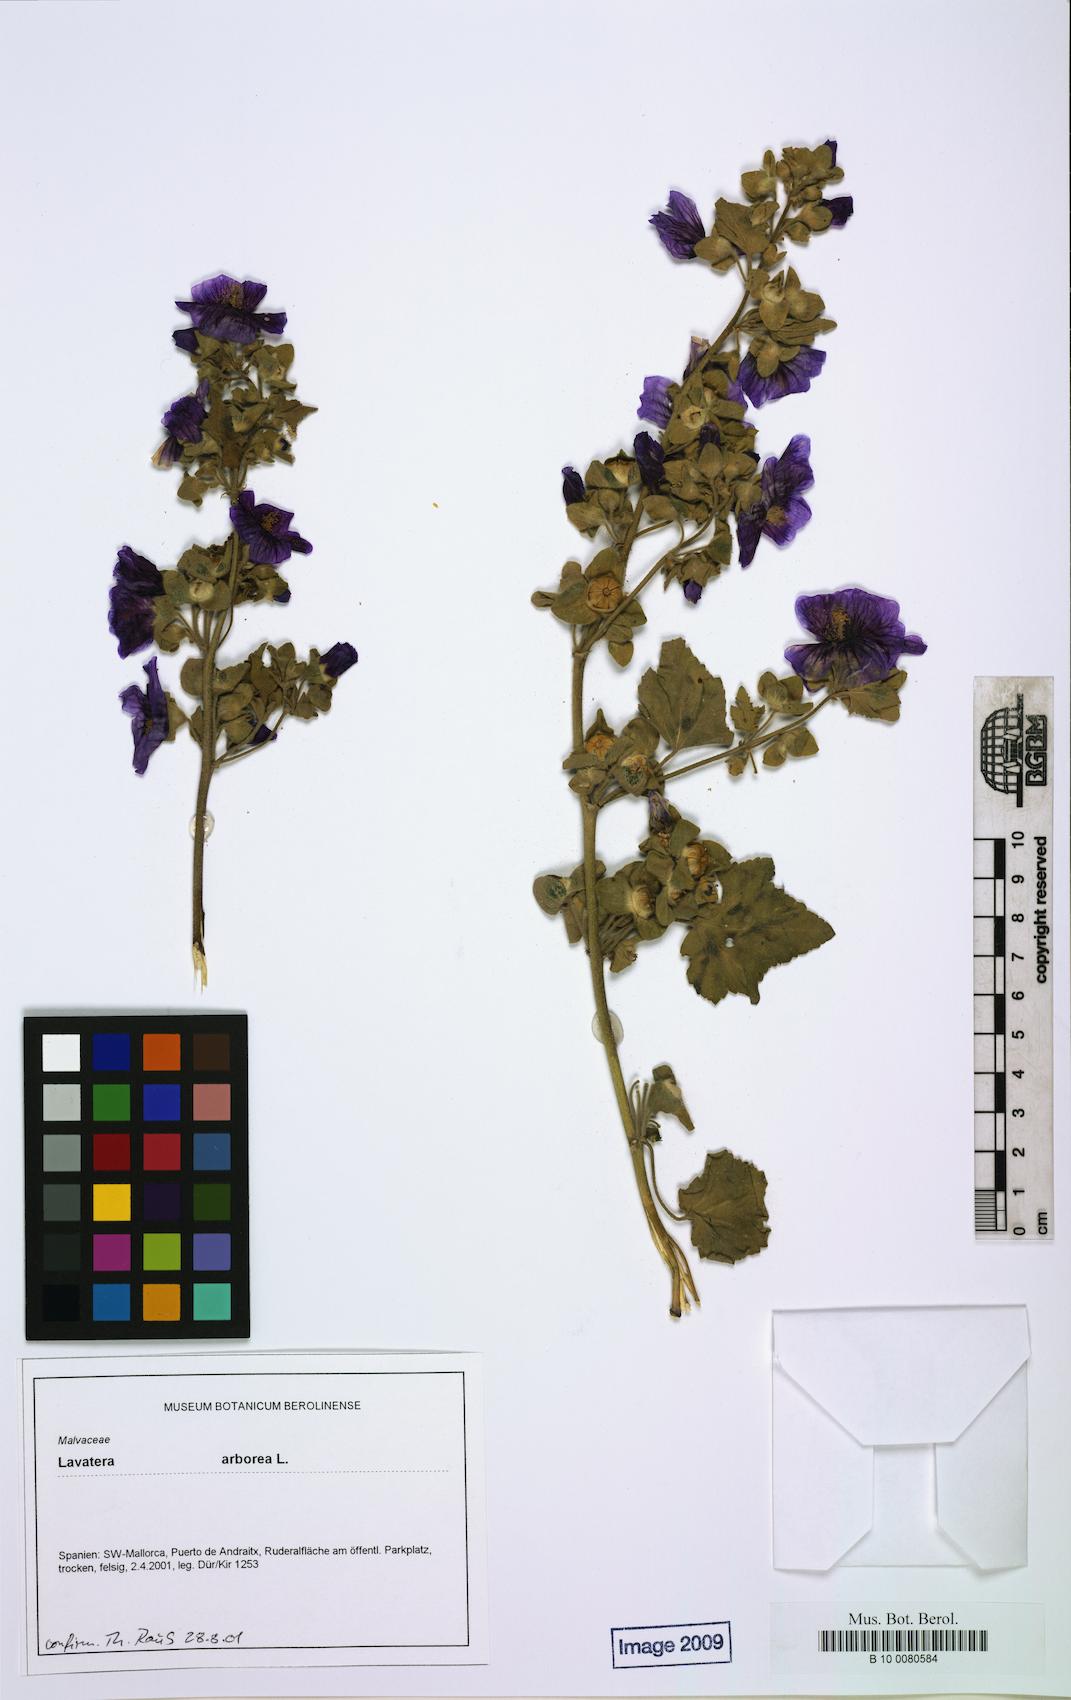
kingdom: Plantae
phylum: Tracheophyta
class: Magnoliopsida
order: Malvales
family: Malvaceae
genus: Malva
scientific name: Malva arborea
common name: Tree mallow
